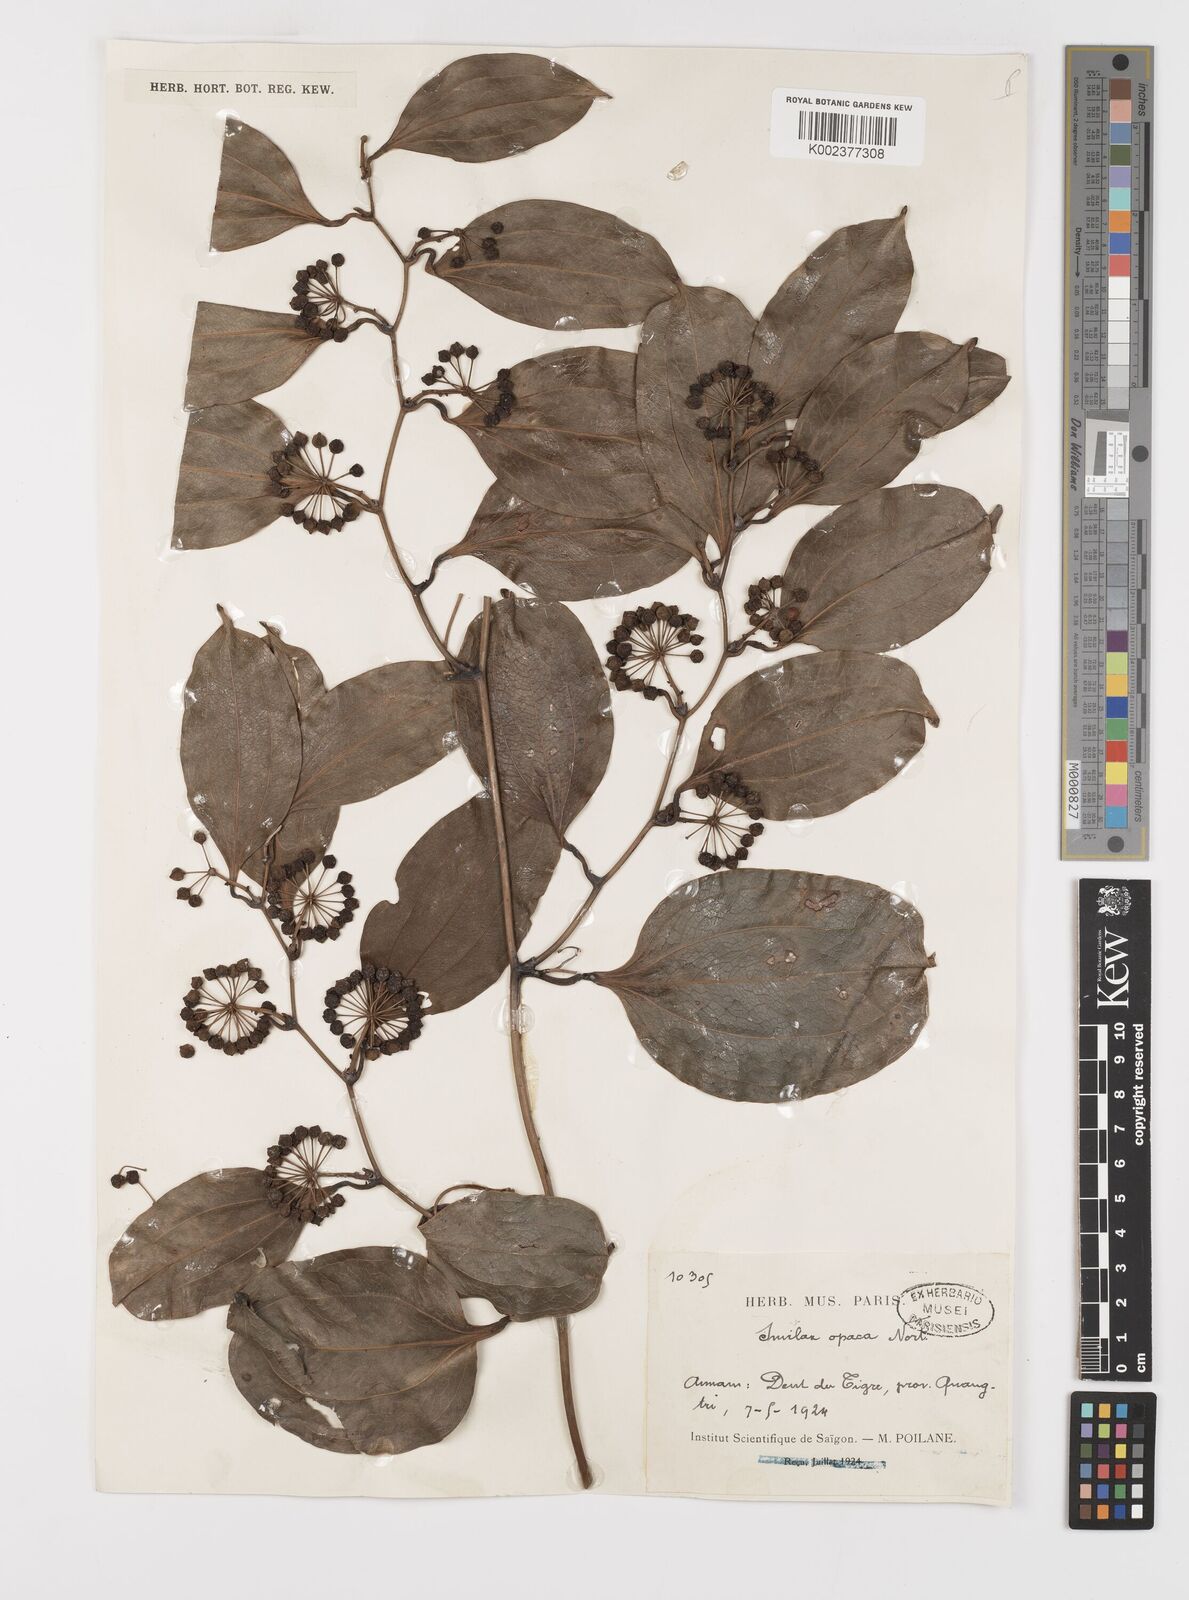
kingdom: Plantae
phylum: Tracheophyta
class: Liliopsida
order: Liliales
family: Smilacaceae
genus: Smilax
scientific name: Smilax laevis
